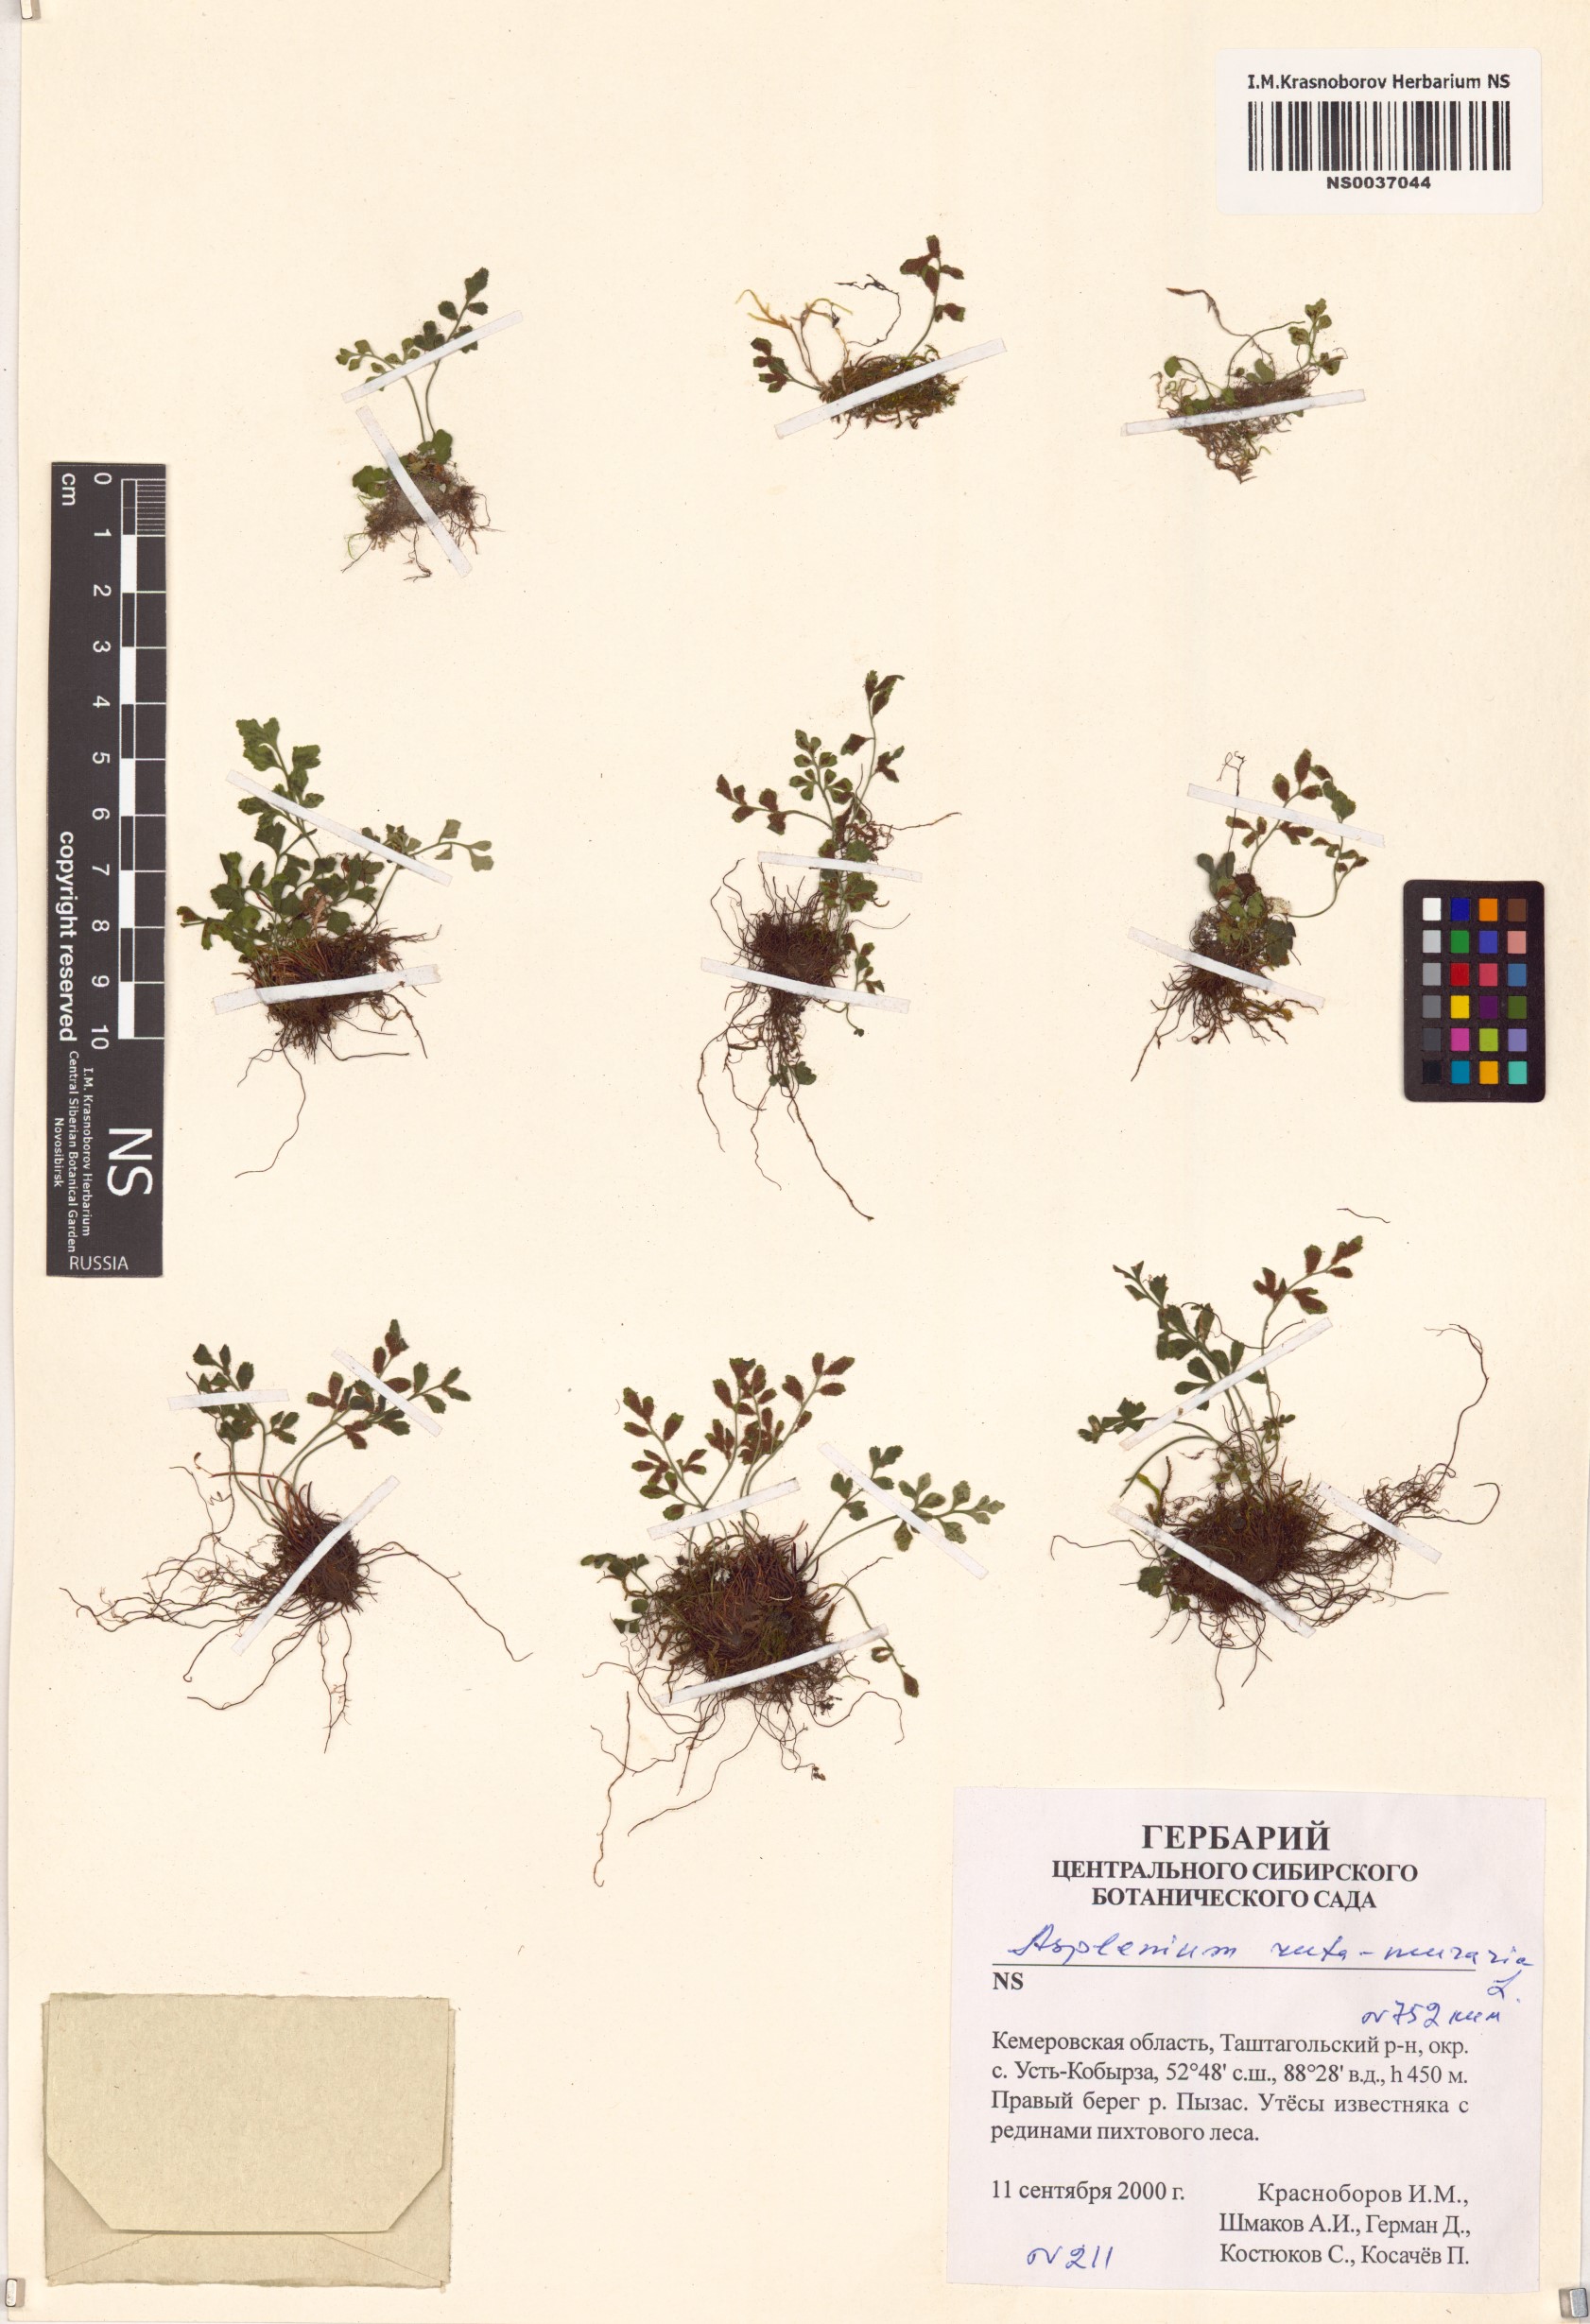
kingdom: Plantae
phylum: Tracheophyta
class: Polypodiopsida
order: Polypodiales
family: Aspleniaceae
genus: Asplenium
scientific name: Asplenium ruta-muraria
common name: Wall-rue
